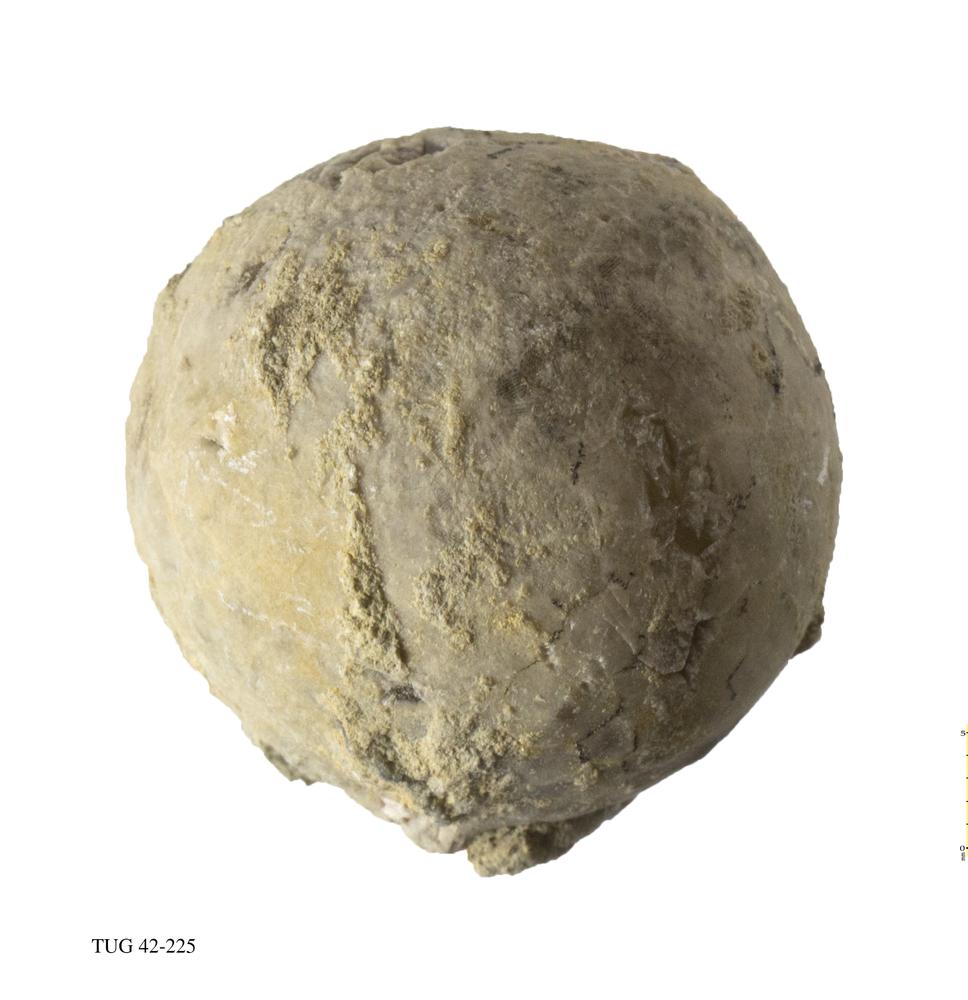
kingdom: Animalia
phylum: Echinodermata
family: Echinosphaeritidae
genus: Echinosphaerites
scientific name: Echinosphaerites Echinus aurantium
